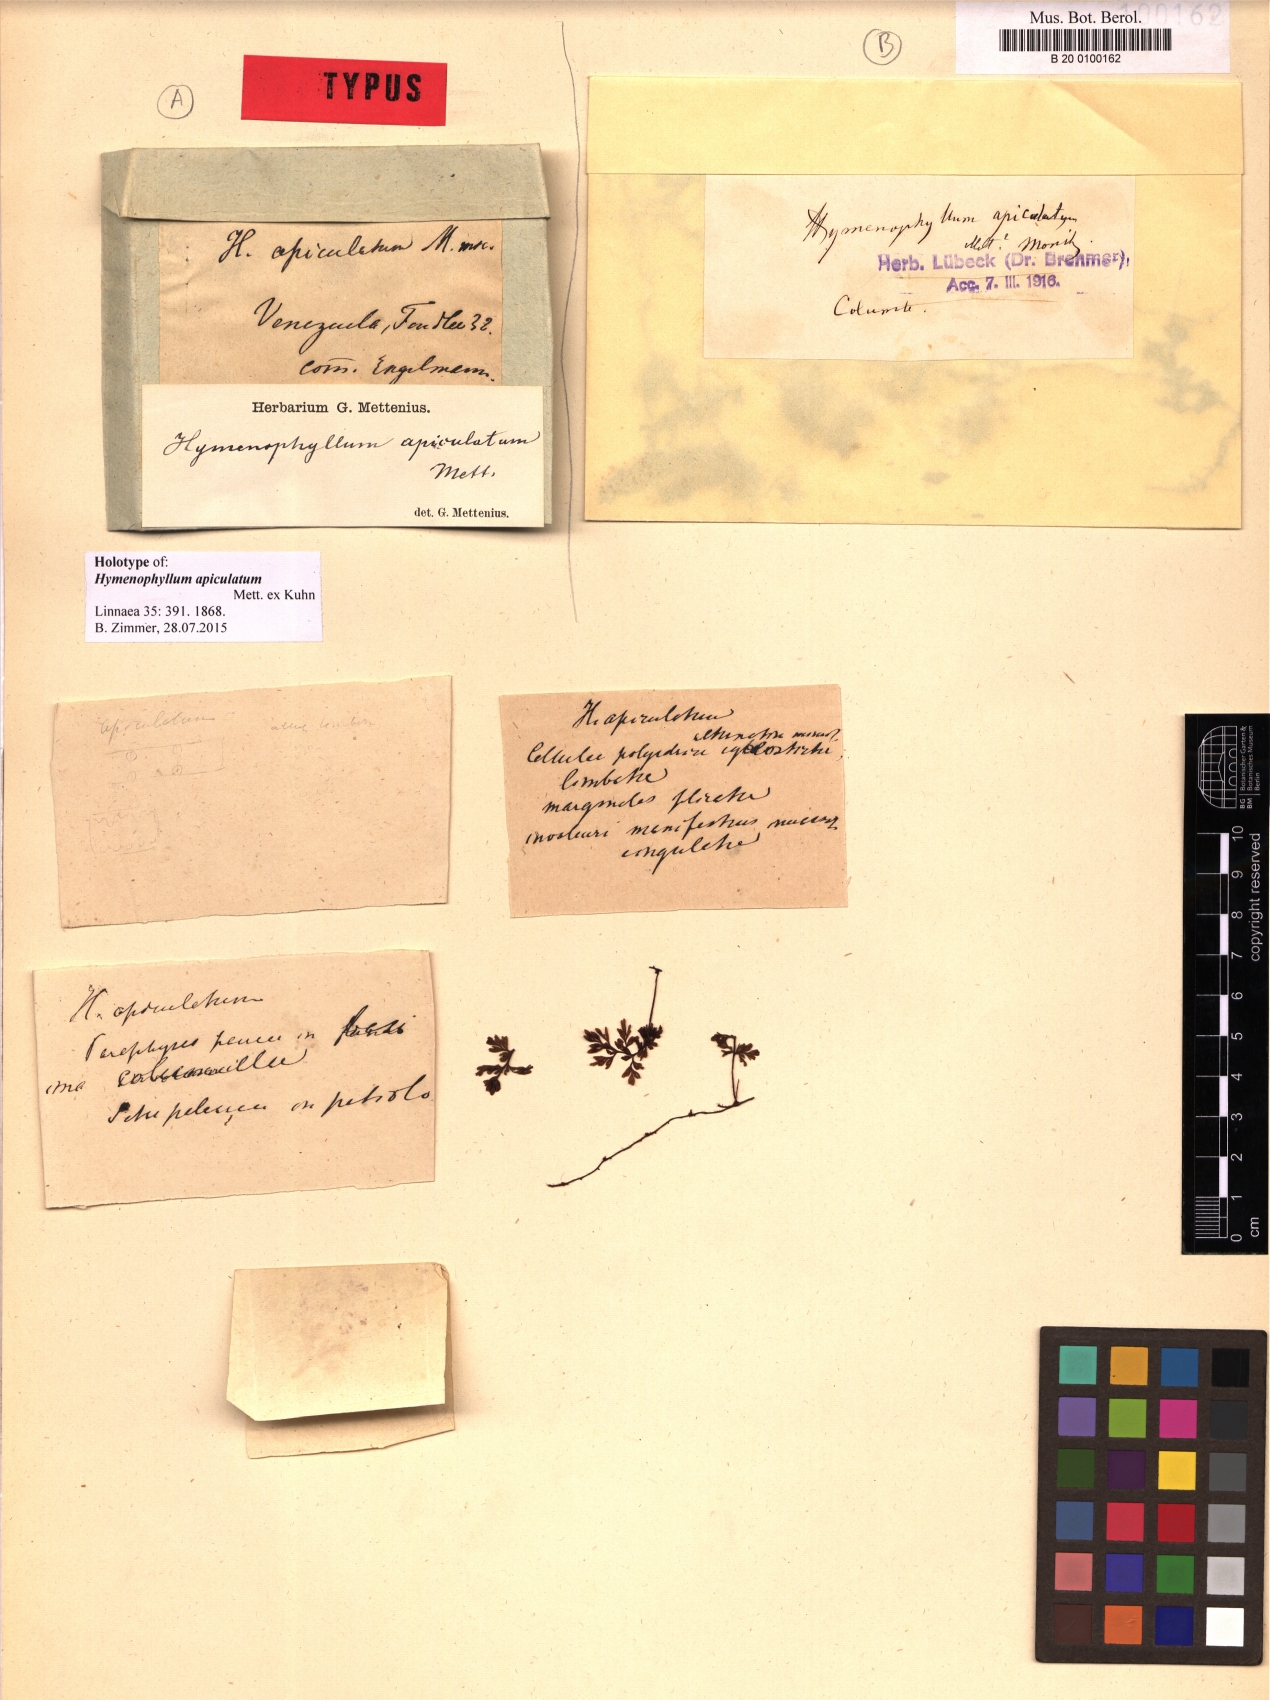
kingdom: Plantae
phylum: Tracheophyta
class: Polypodiopsida
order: Hymenophyllales
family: Hymenophyllaceae
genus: Hymenophyllum
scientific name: Hymenophyllum apiculatum
